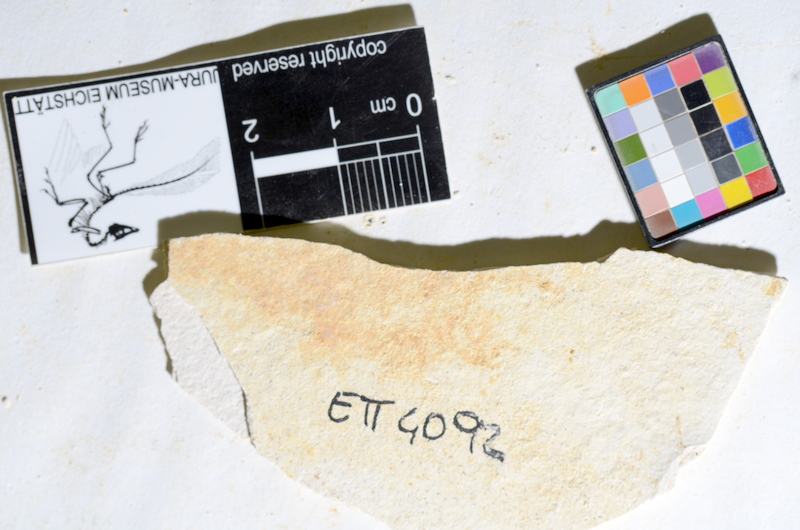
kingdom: Animalia
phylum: Chordata
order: Salmoniformes
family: Orthogonikleithridae
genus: Orthogonikleithrus
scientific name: Orthogonikleithrus hoelli
